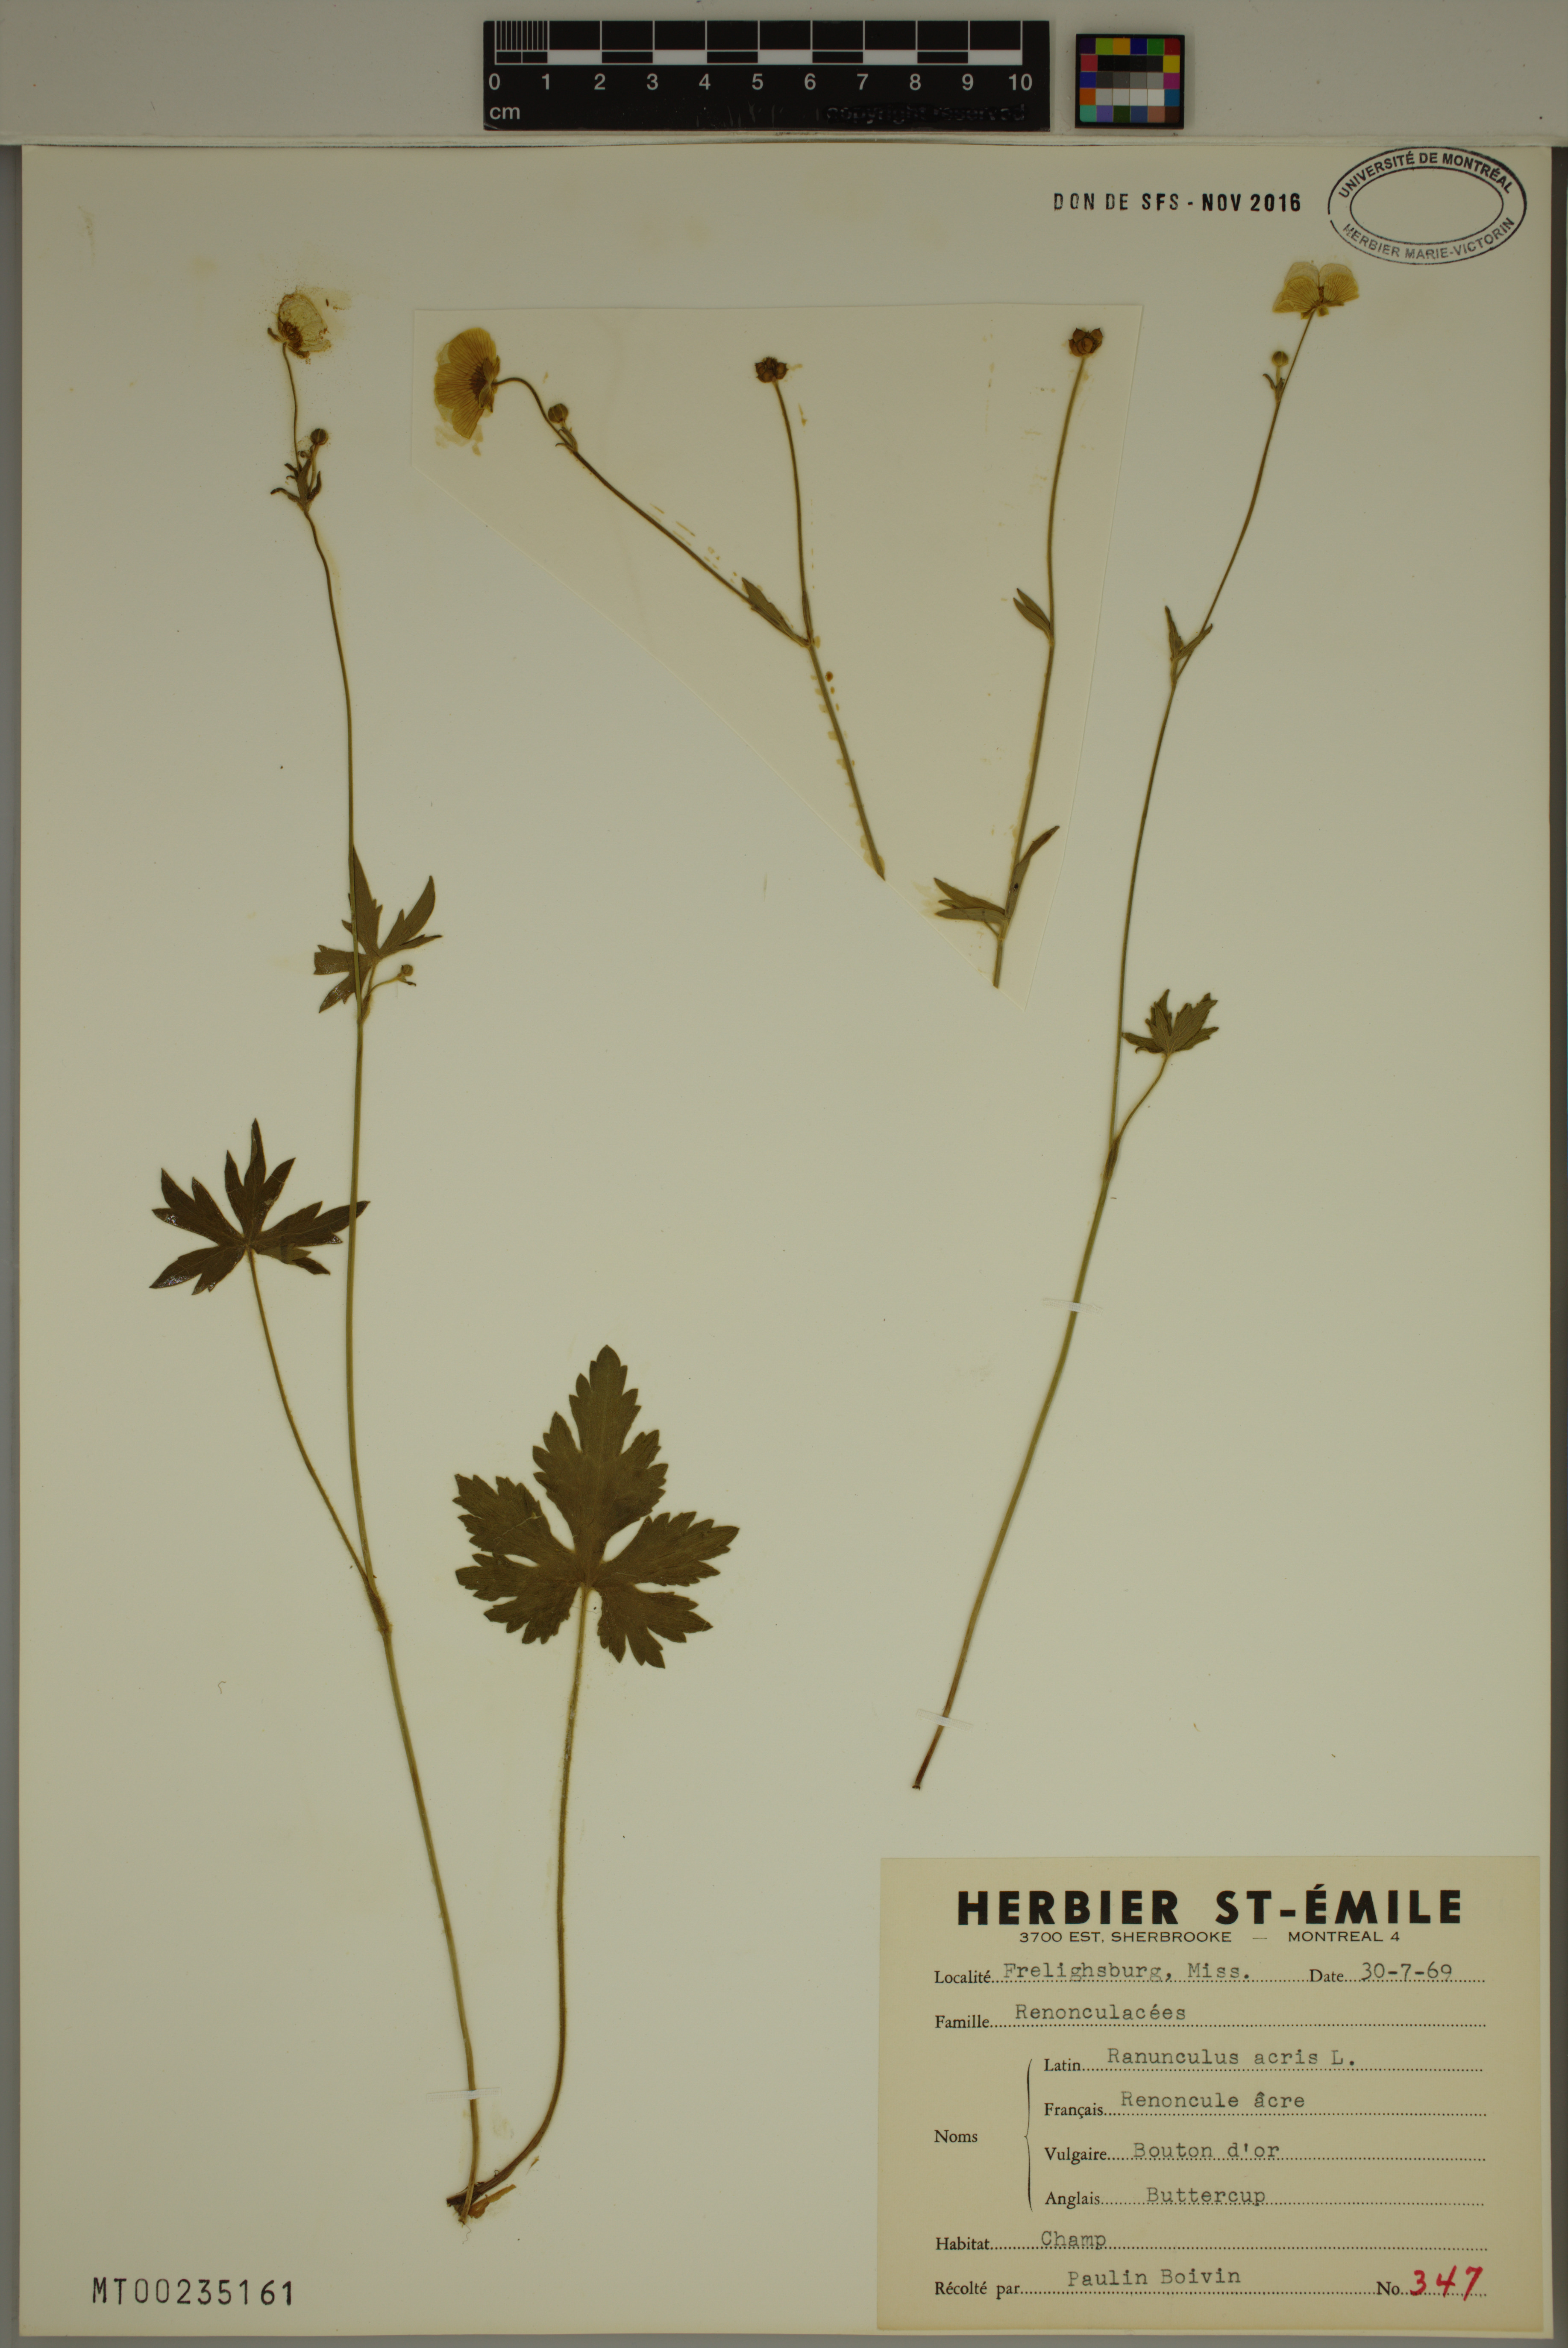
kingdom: Plantae
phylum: Tracheophyta
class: Magnoliopsida
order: Ranunculales
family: Ranunculaceae
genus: Ranunculus
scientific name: Ranunculus acris
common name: Meadow buttercup
